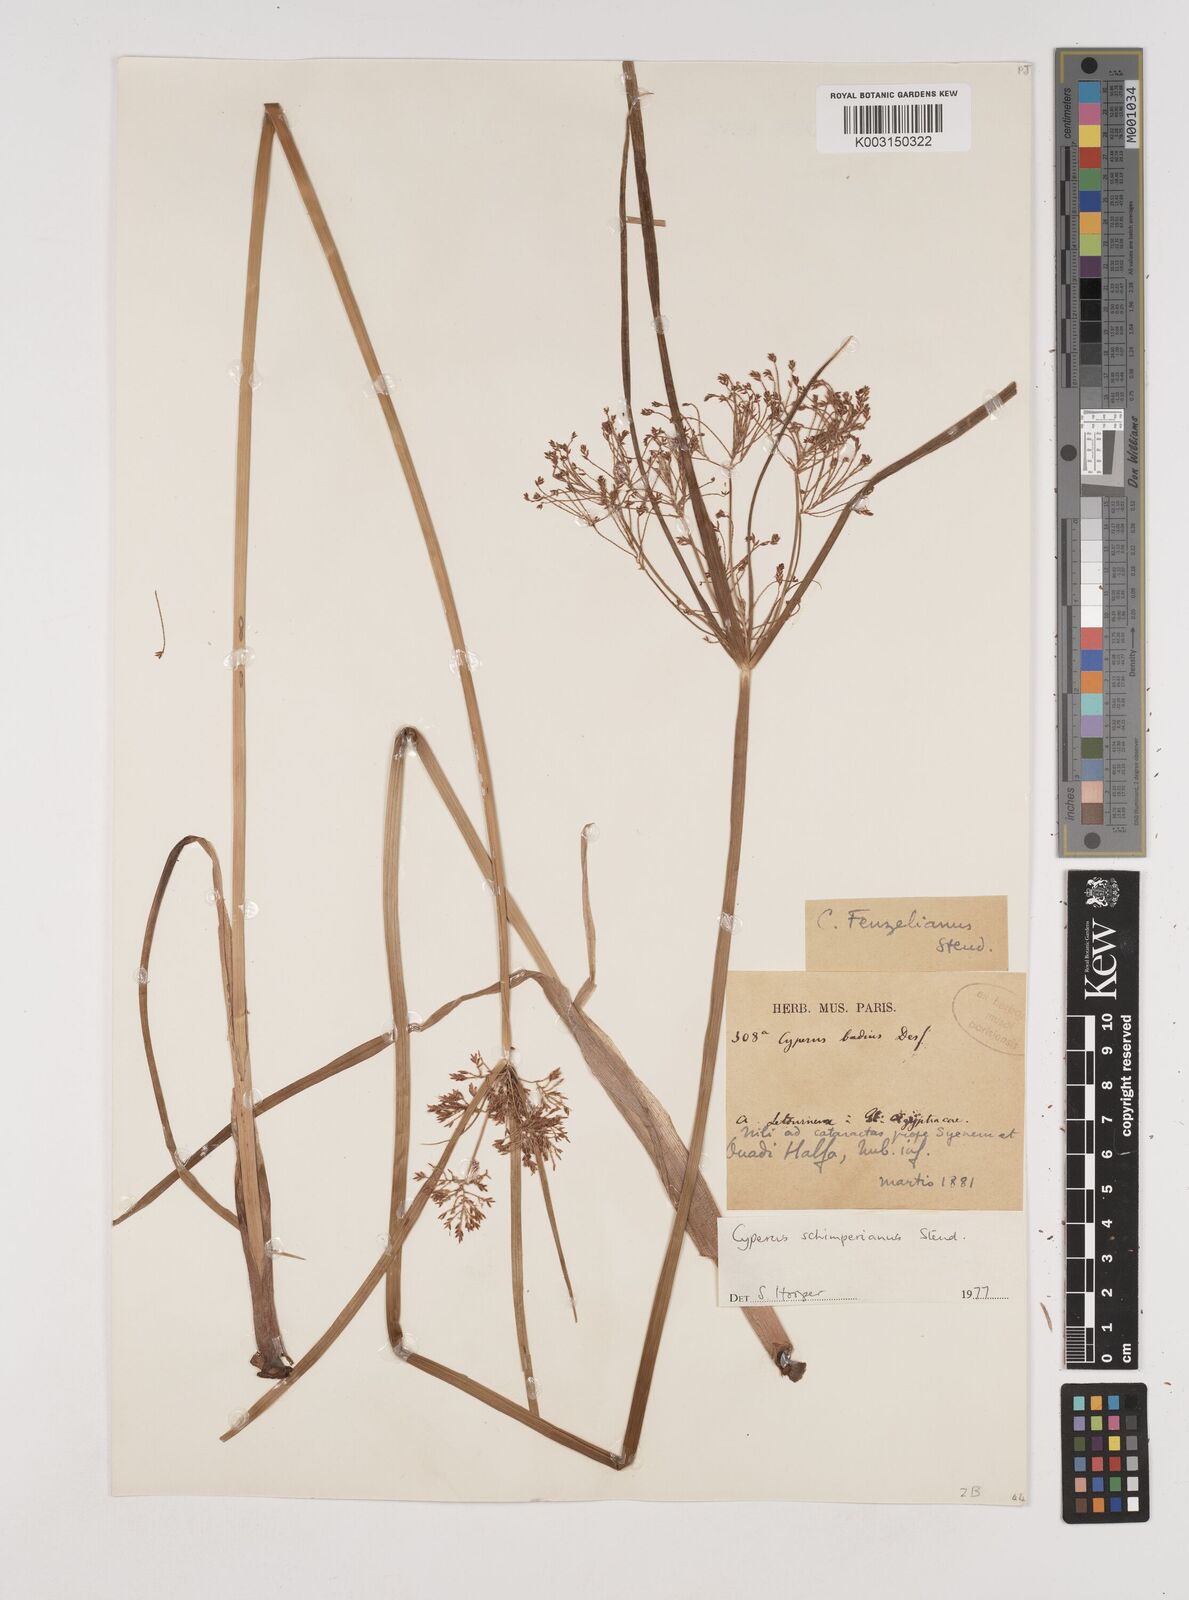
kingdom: Plantae
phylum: Tracheophyta
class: Liliopsida
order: Poales
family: Cyperaceae
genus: Cyperus
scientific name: Cyperus schimperianus
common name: Schimper flatsedge
